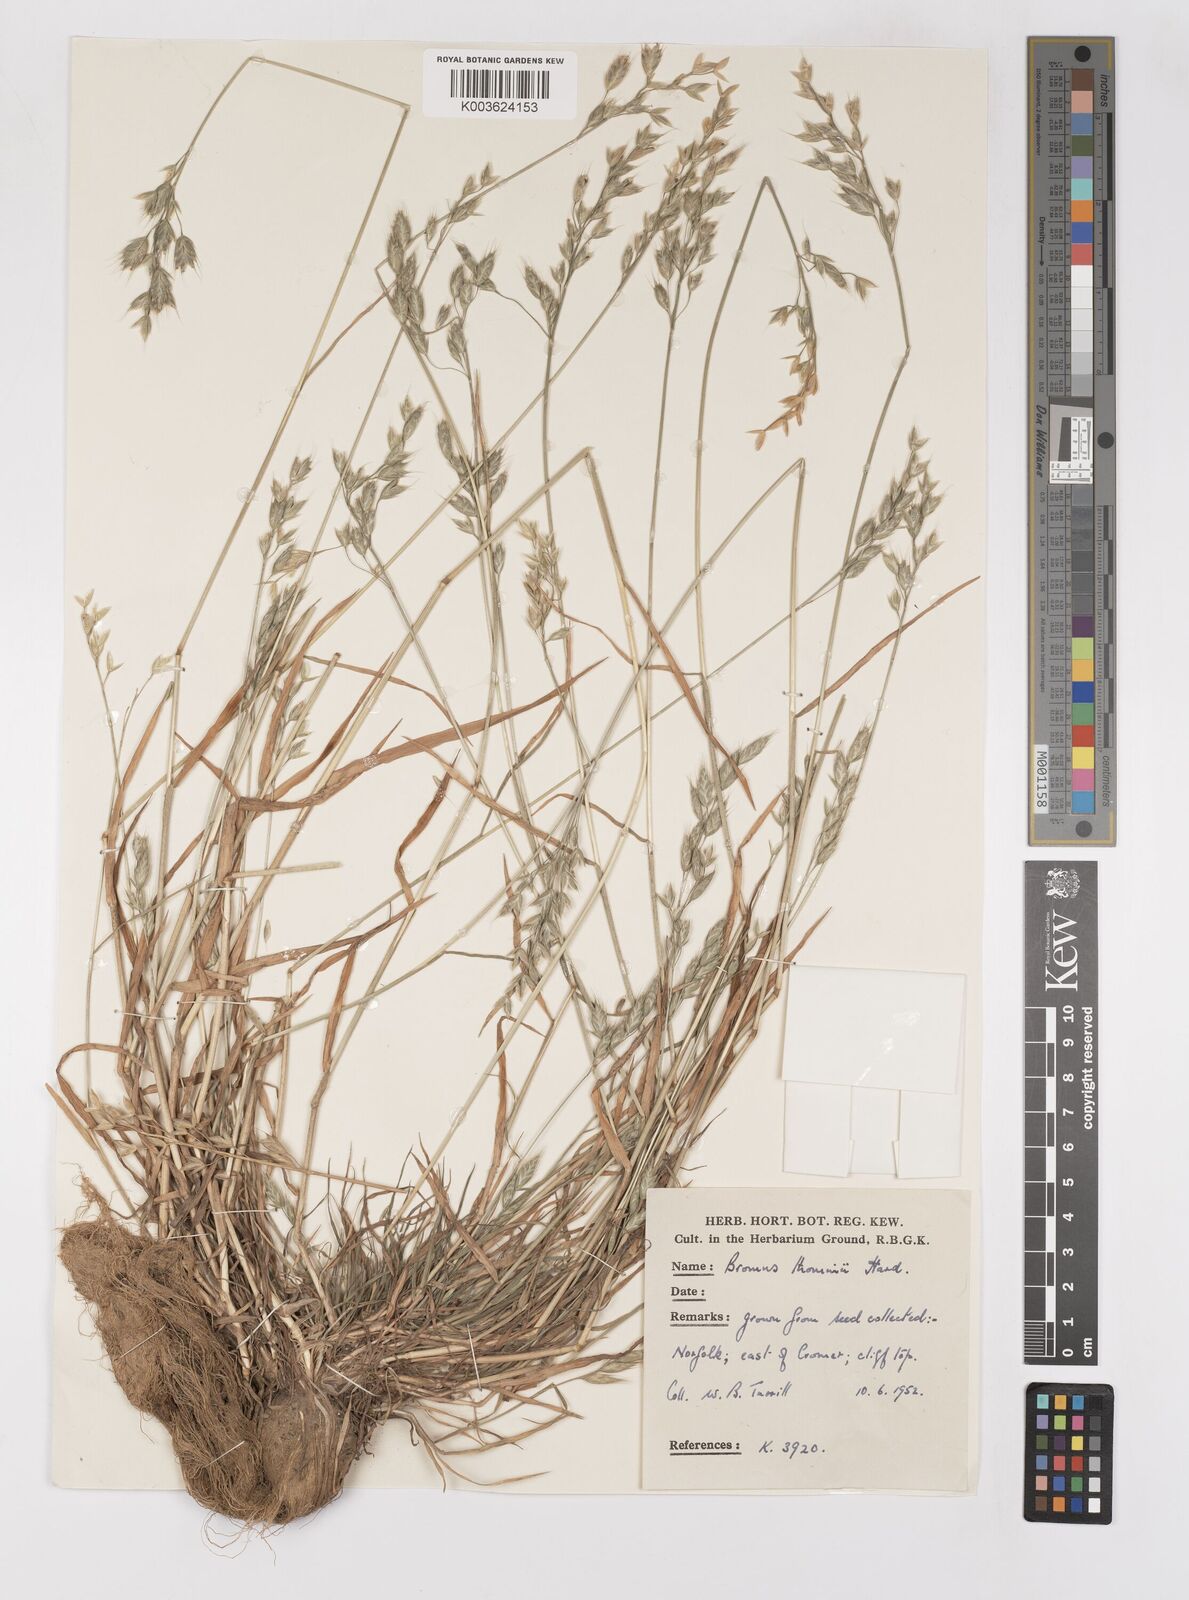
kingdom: Plantae
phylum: Tracheophyta
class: Liliopsida
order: Poales
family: Poaceae
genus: Bromus
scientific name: Bromus hordeaceus
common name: Soft brome
